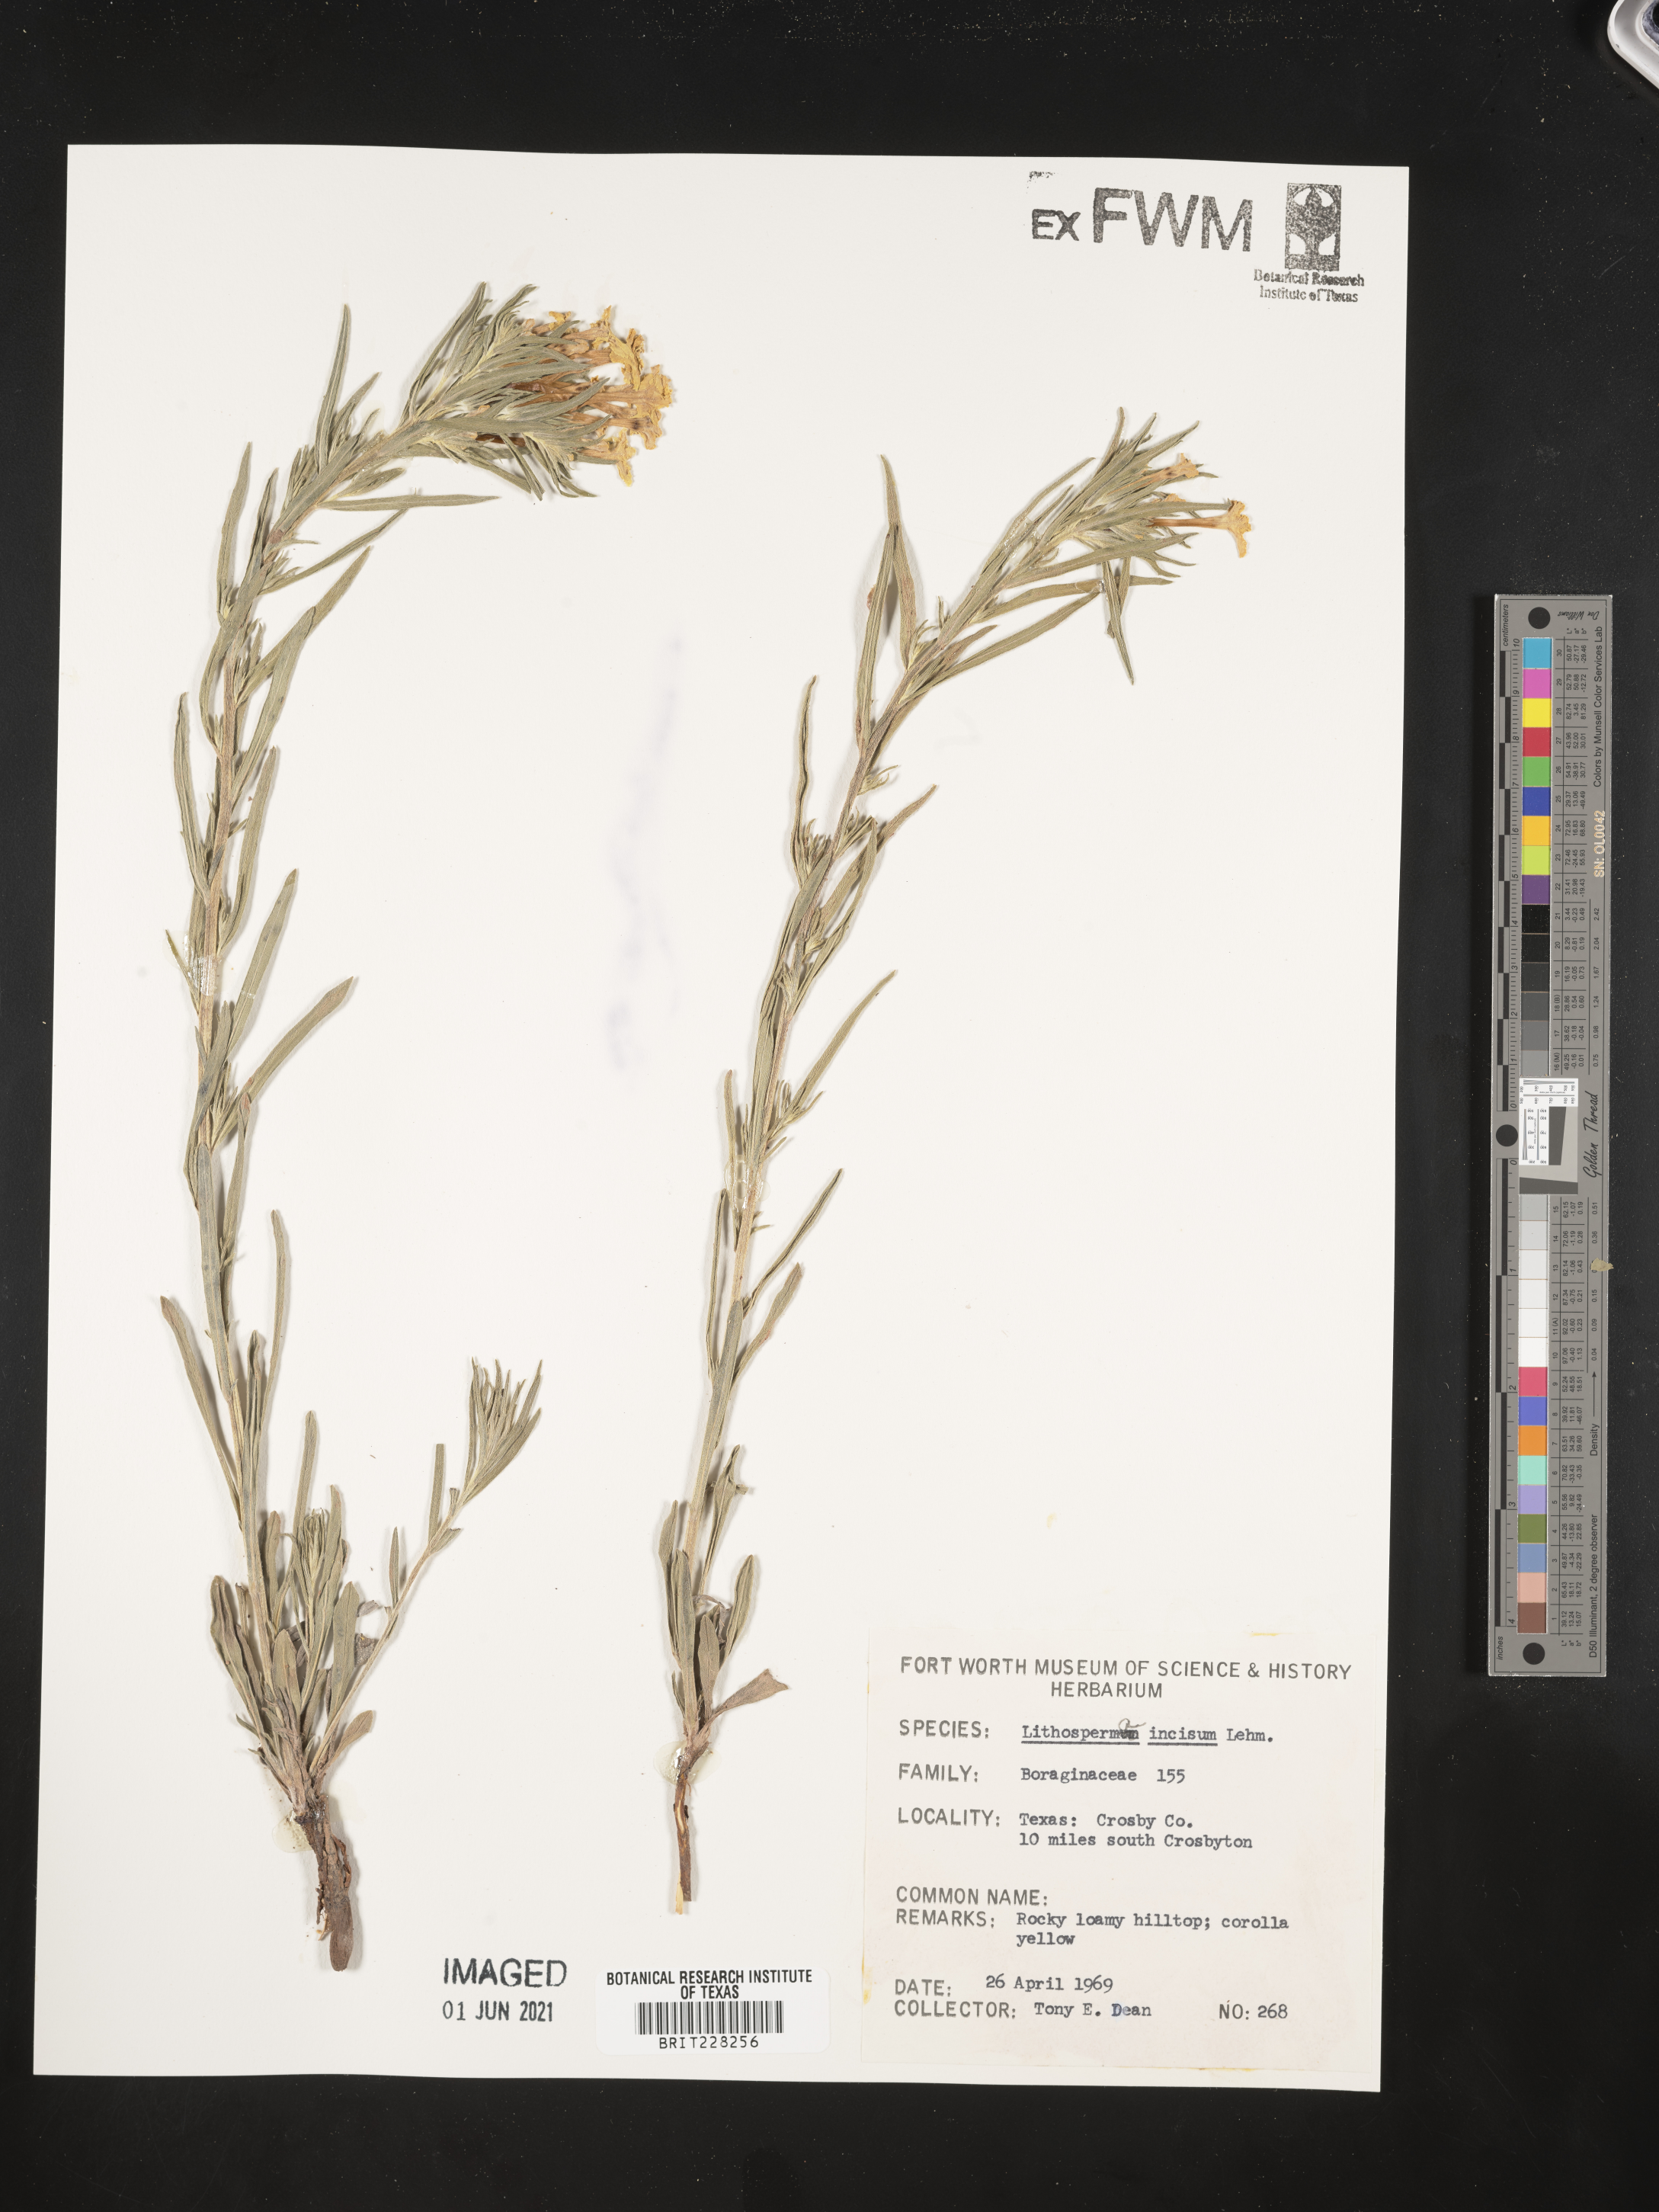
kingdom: Plantae
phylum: Tracheophyta
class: Magnoliopsida
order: Boraginales
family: Boraginaceae
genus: Lithospermum
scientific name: Lithospermum incisum
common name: Fringed gromwell
